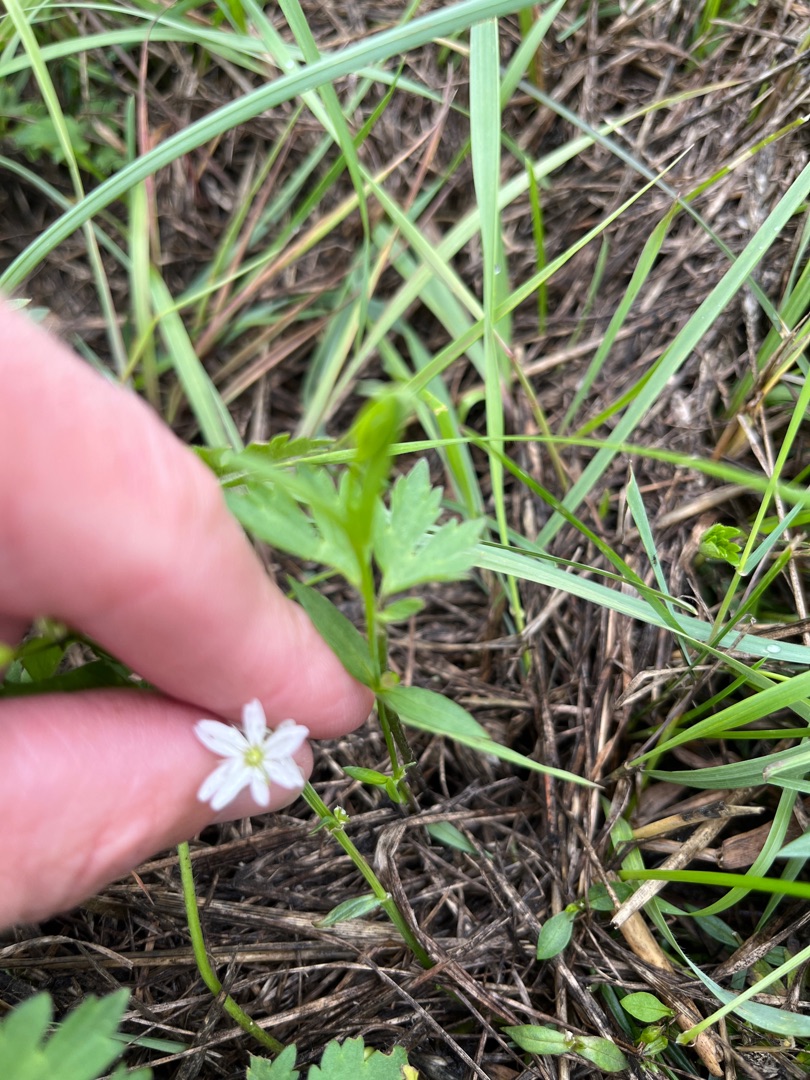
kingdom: Plantae
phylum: Tracheophyta
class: Magnoliopsida
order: Caryophyllales
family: Caryophyllaceae
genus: Stellaria
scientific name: Stellaria graminea
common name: Græsbladet fladstjerne
